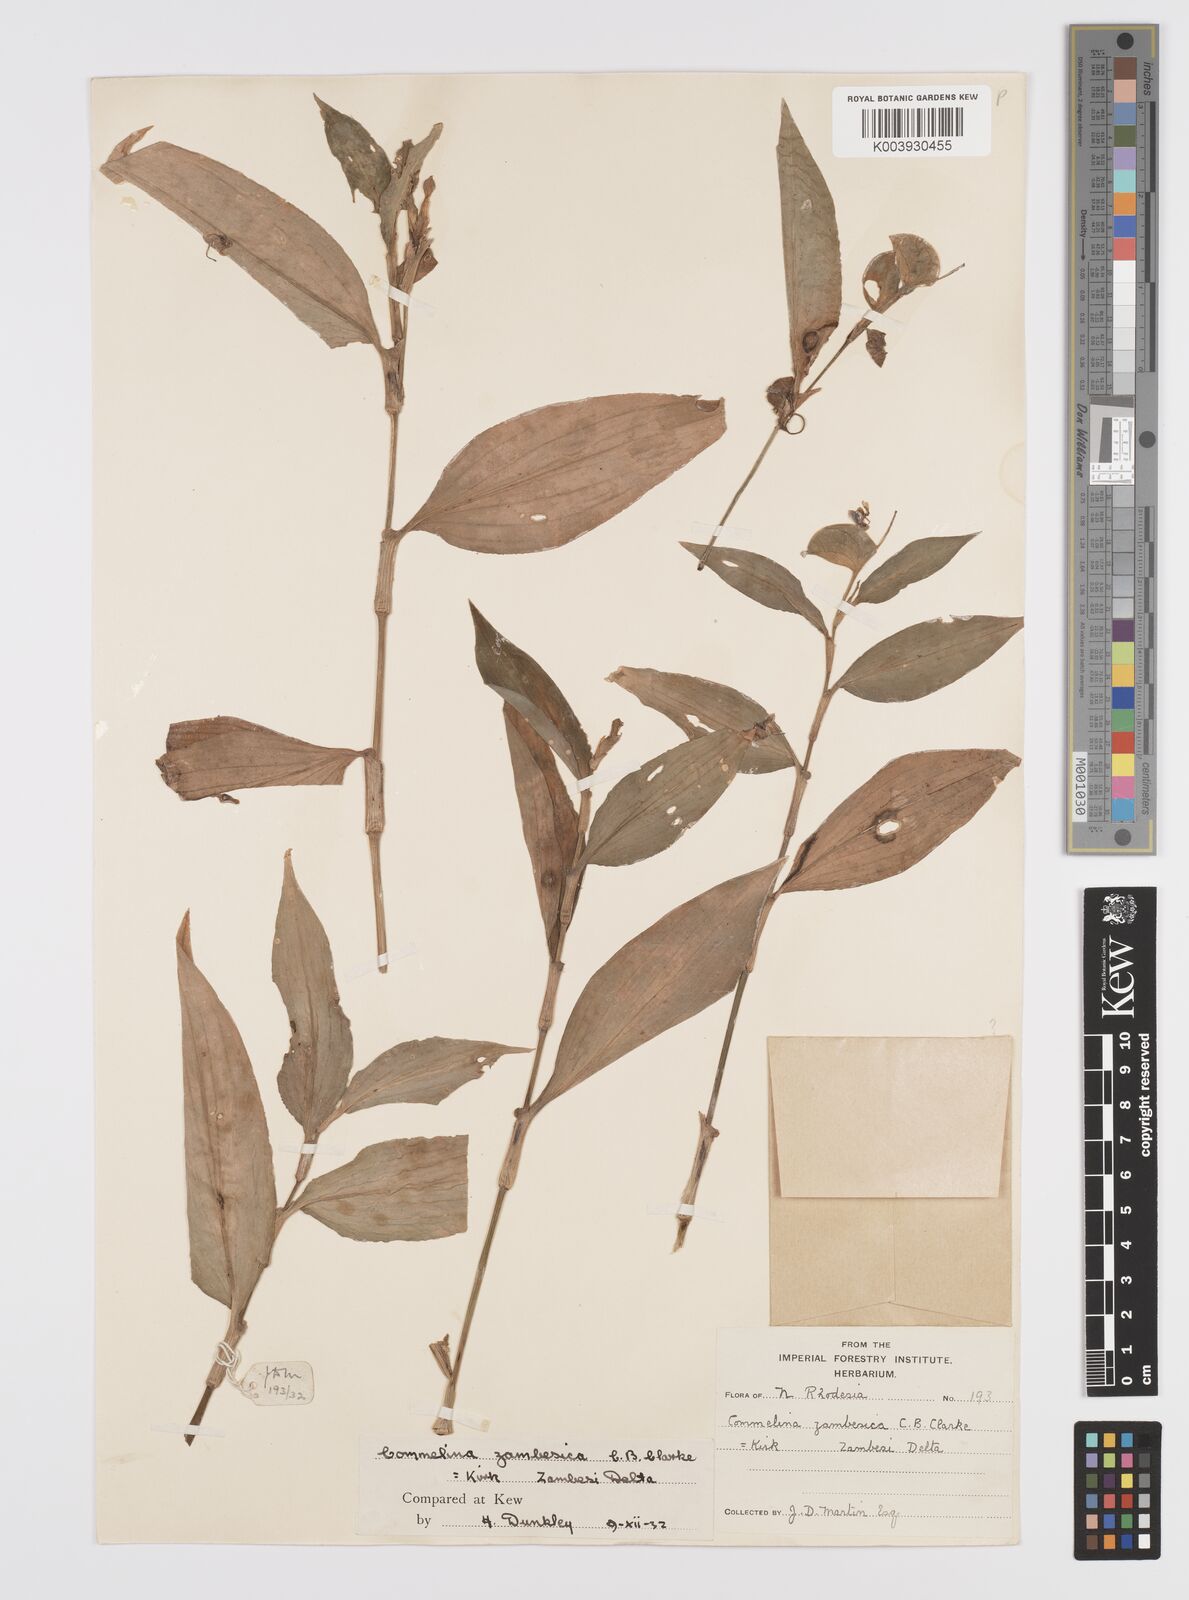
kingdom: Plantae
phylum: Tracheophyta
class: Liliopsida
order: Commelinales
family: Commelinaceae
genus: Commelina
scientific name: Commelina zambesica
